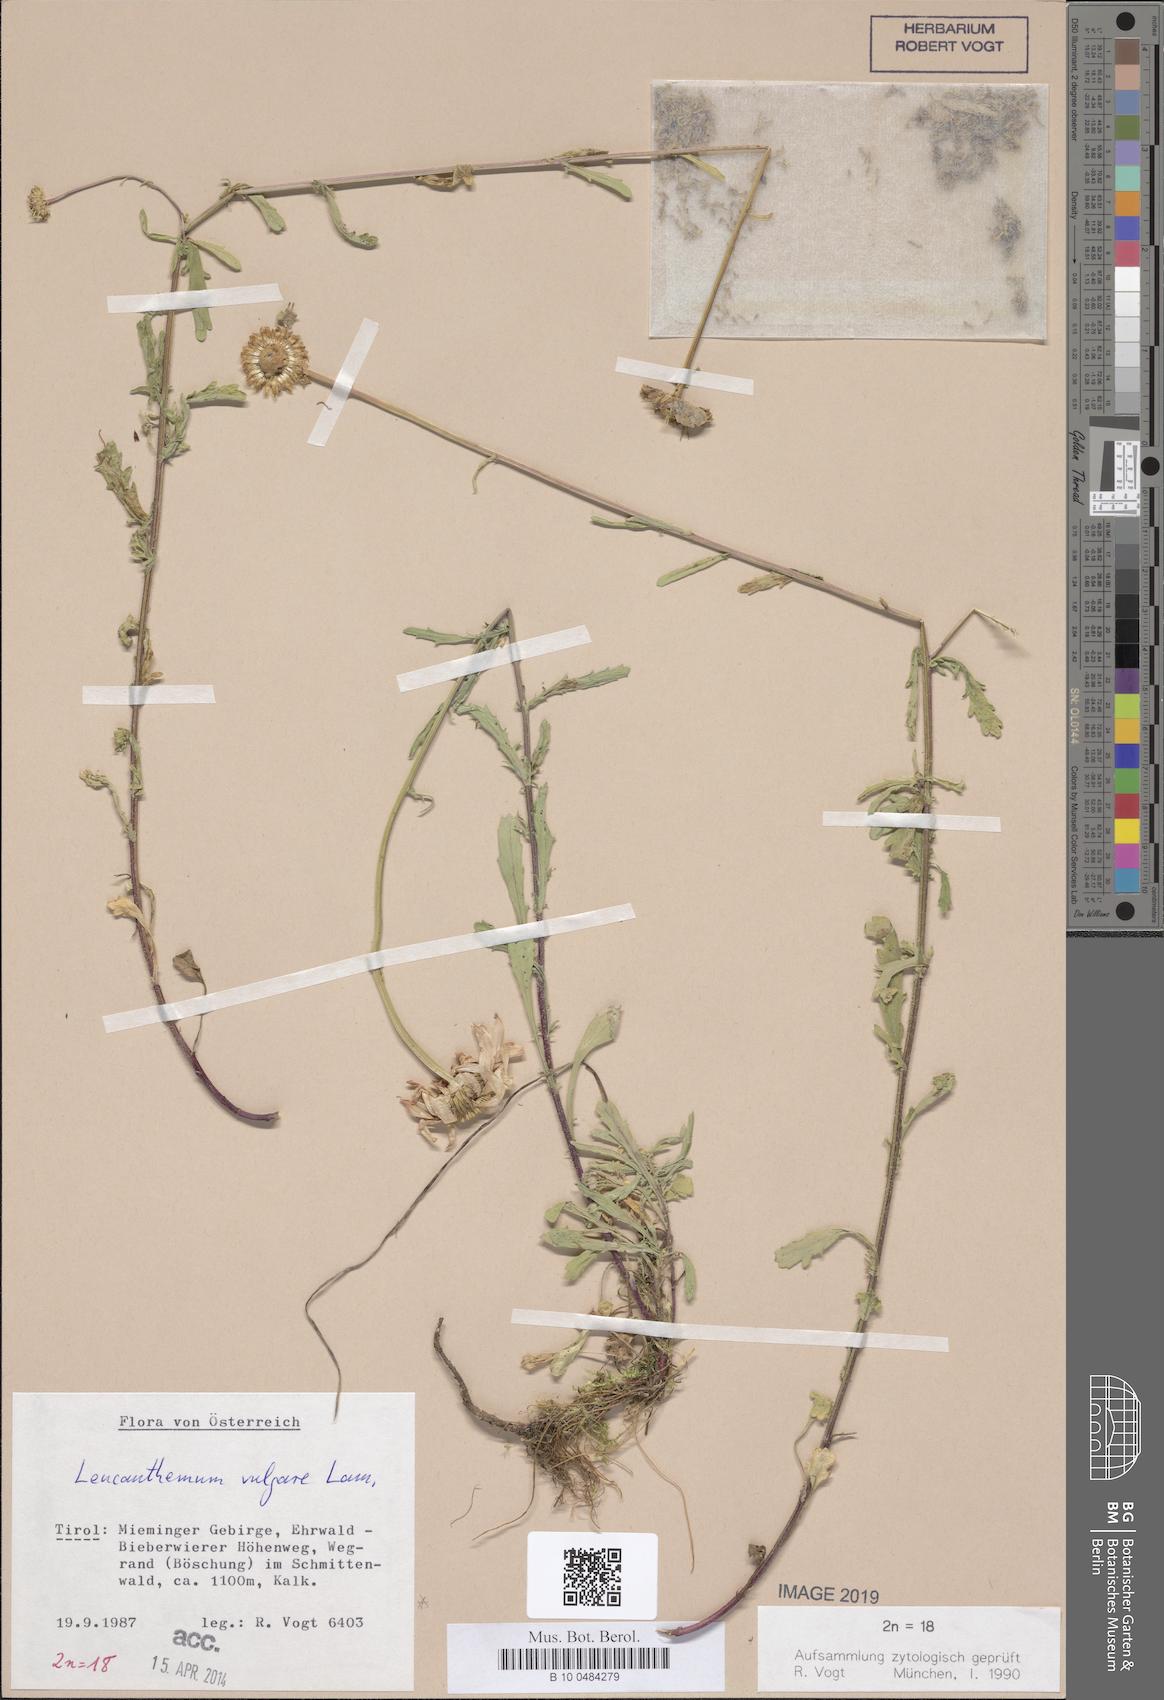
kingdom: Plantae
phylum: Tracheophyta
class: Magnoliopsida
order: Asterales
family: Asteraceae
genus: Leucanthemum
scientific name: Leucanthemum vulgare
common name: Oxeye daisy
